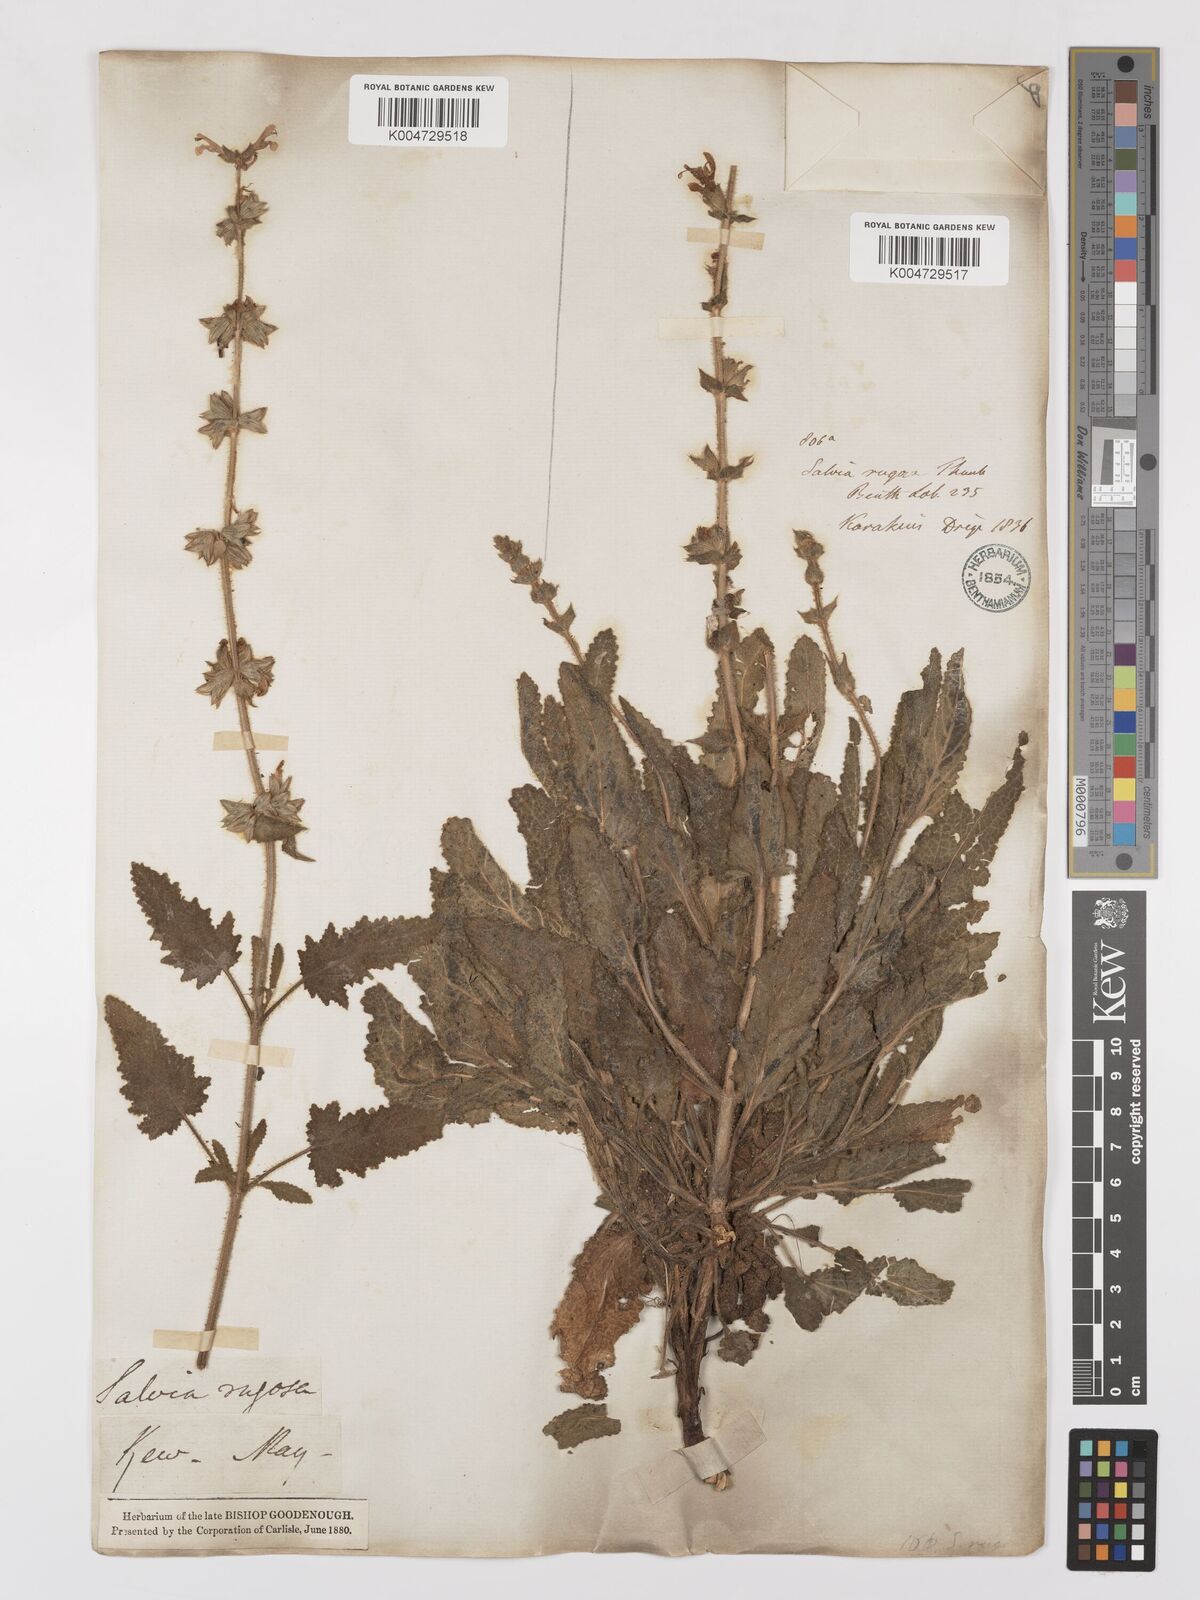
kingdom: Plantae
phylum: Tracheophyta
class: Magnoliopsida
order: Lamiales
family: Lamiaceae
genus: Salvia
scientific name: Salvia
